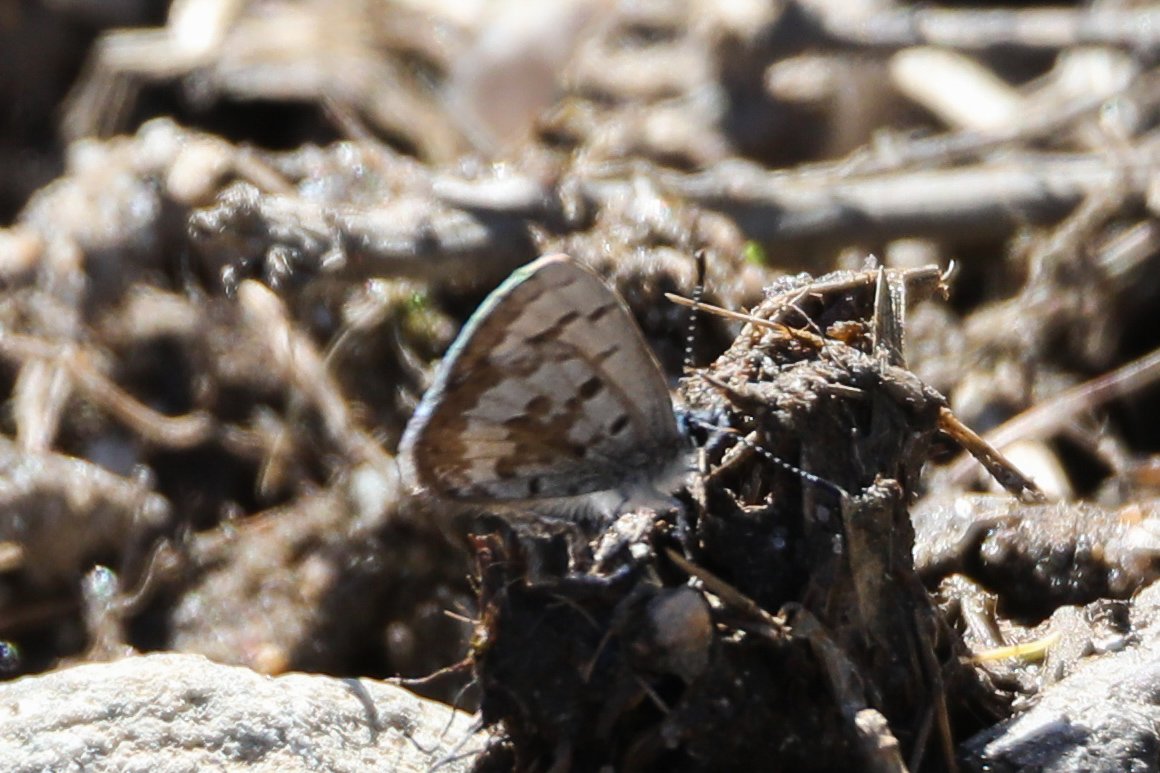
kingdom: Animalia
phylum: Arthropoda
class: Insecta
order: Lepidoptera
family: Lycaenidae
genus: Celastrina
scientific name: Celastrina ladon
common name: Spring Azure
